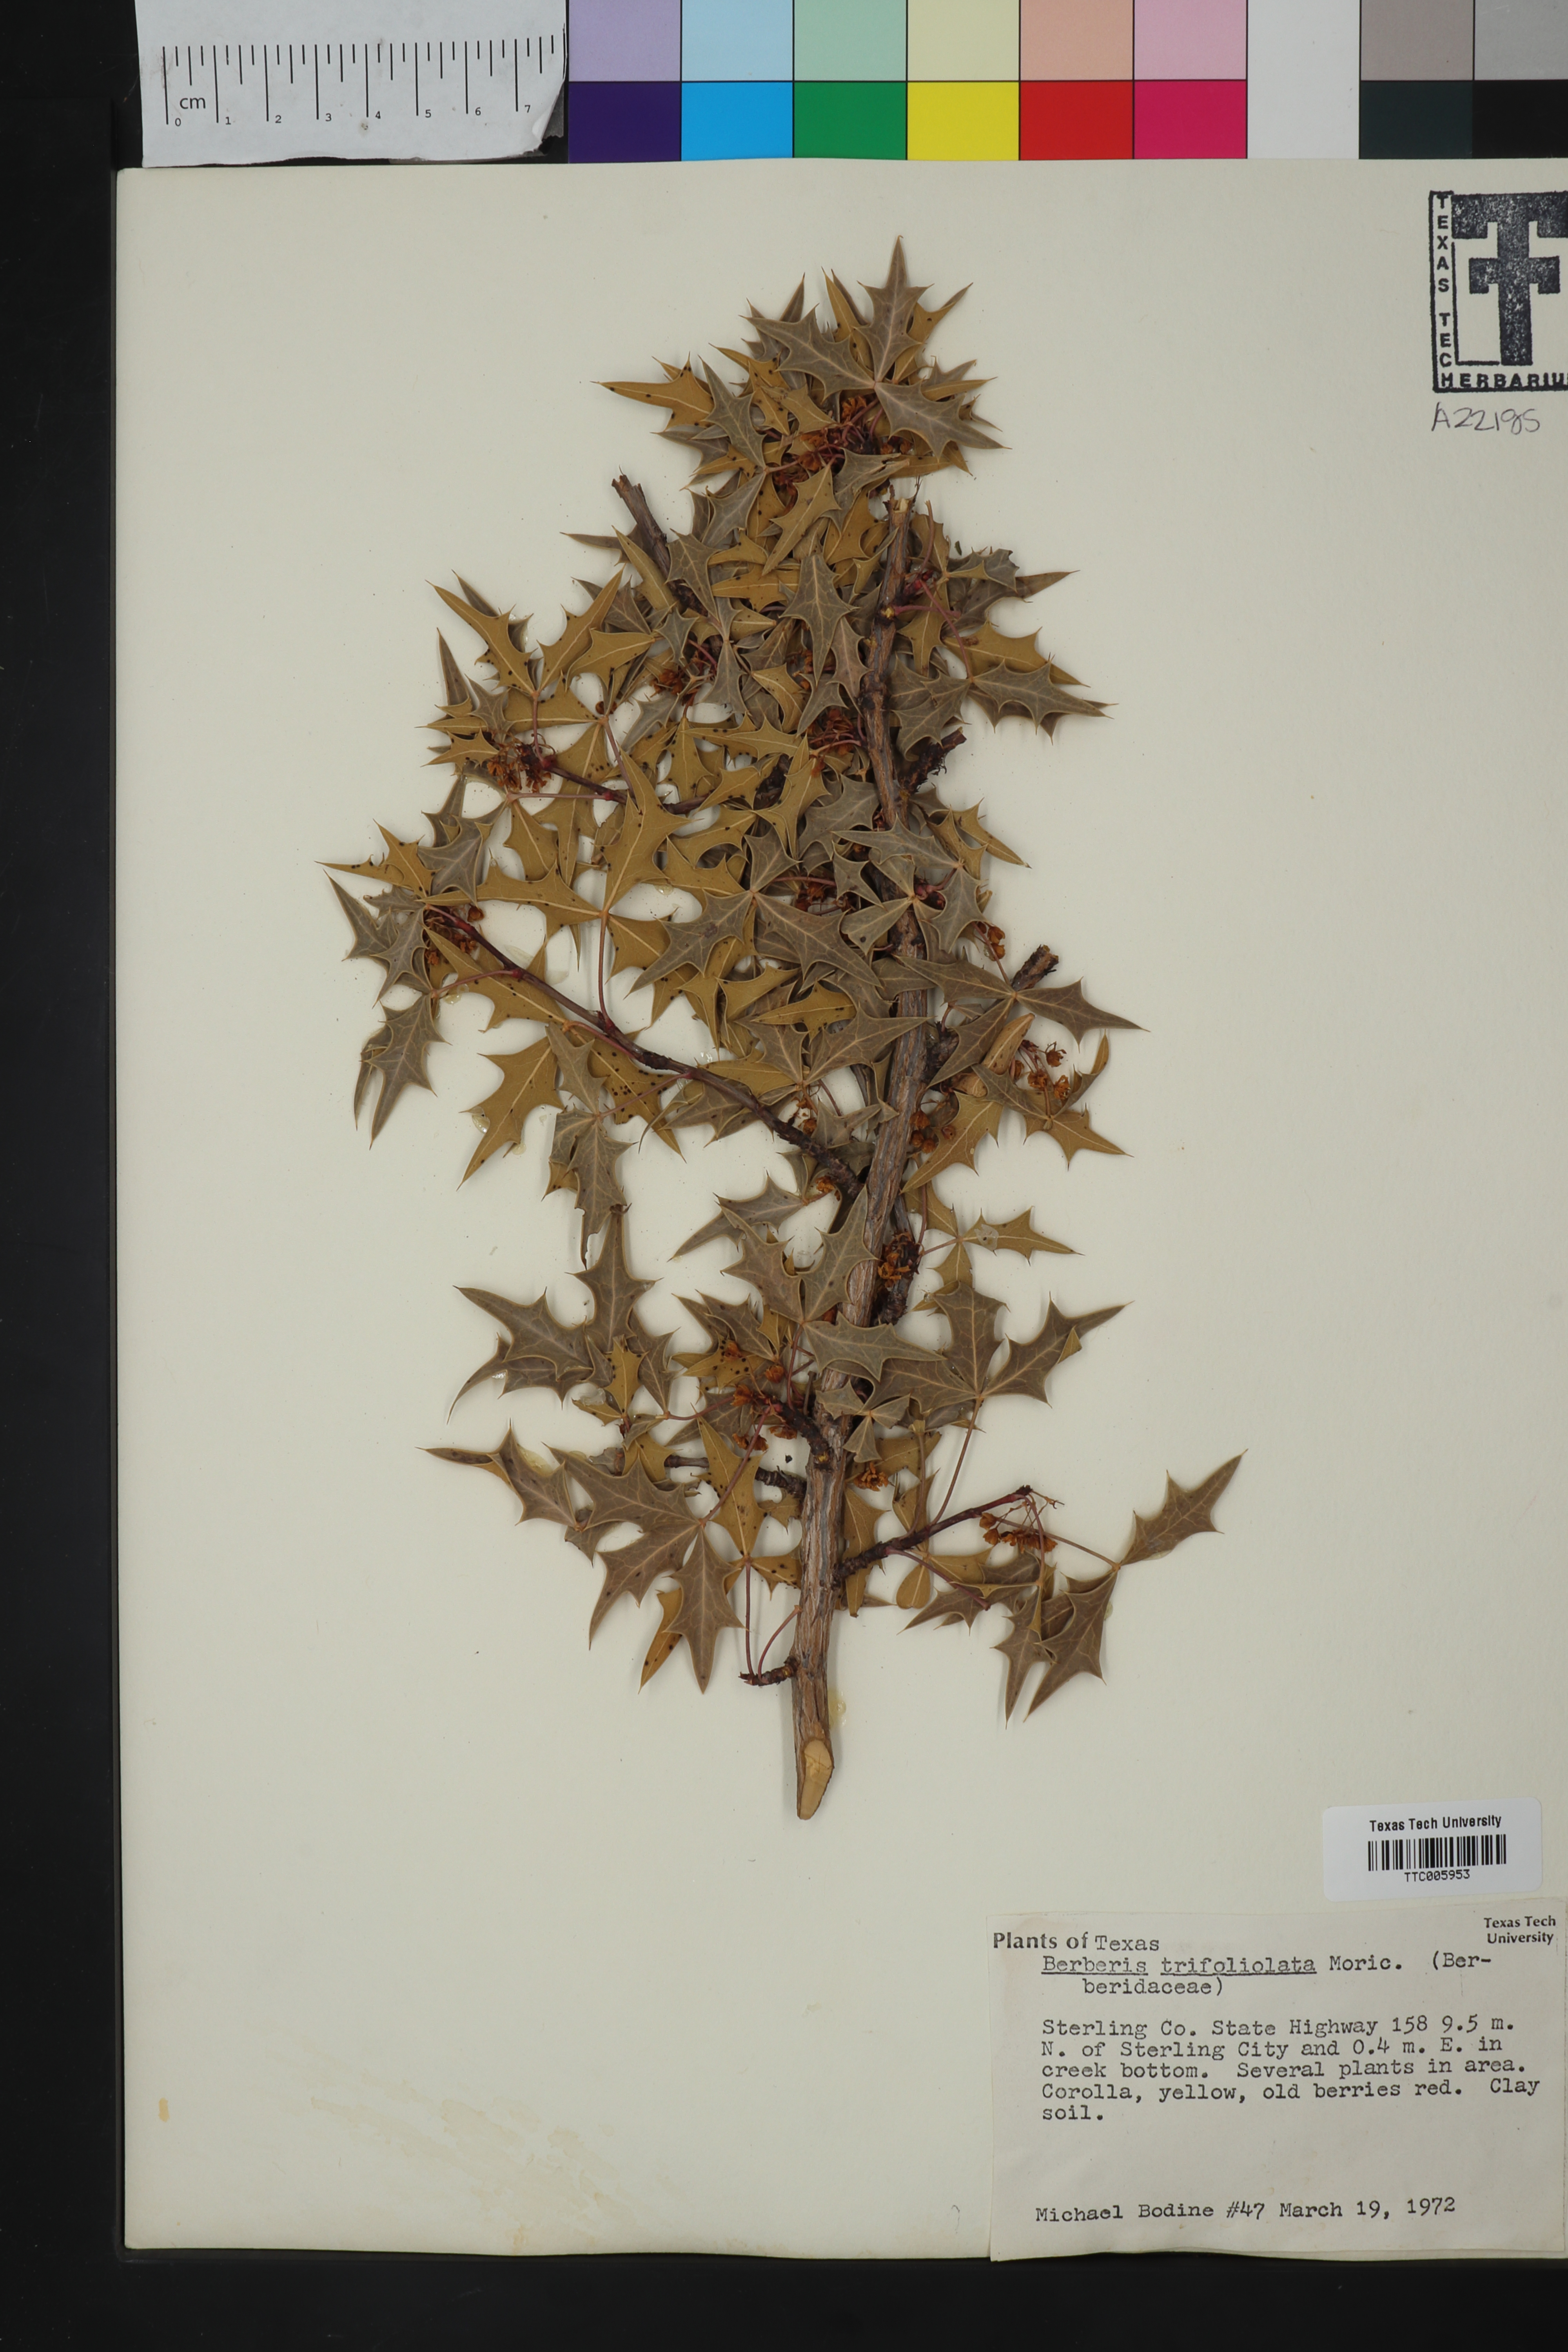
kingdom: Plantae
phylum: Tracheophyta
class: Magnoliopsida
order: Ranunculales
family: Berberidaceae
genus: Alloberberis
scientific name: Alloberberis trifoliolata
